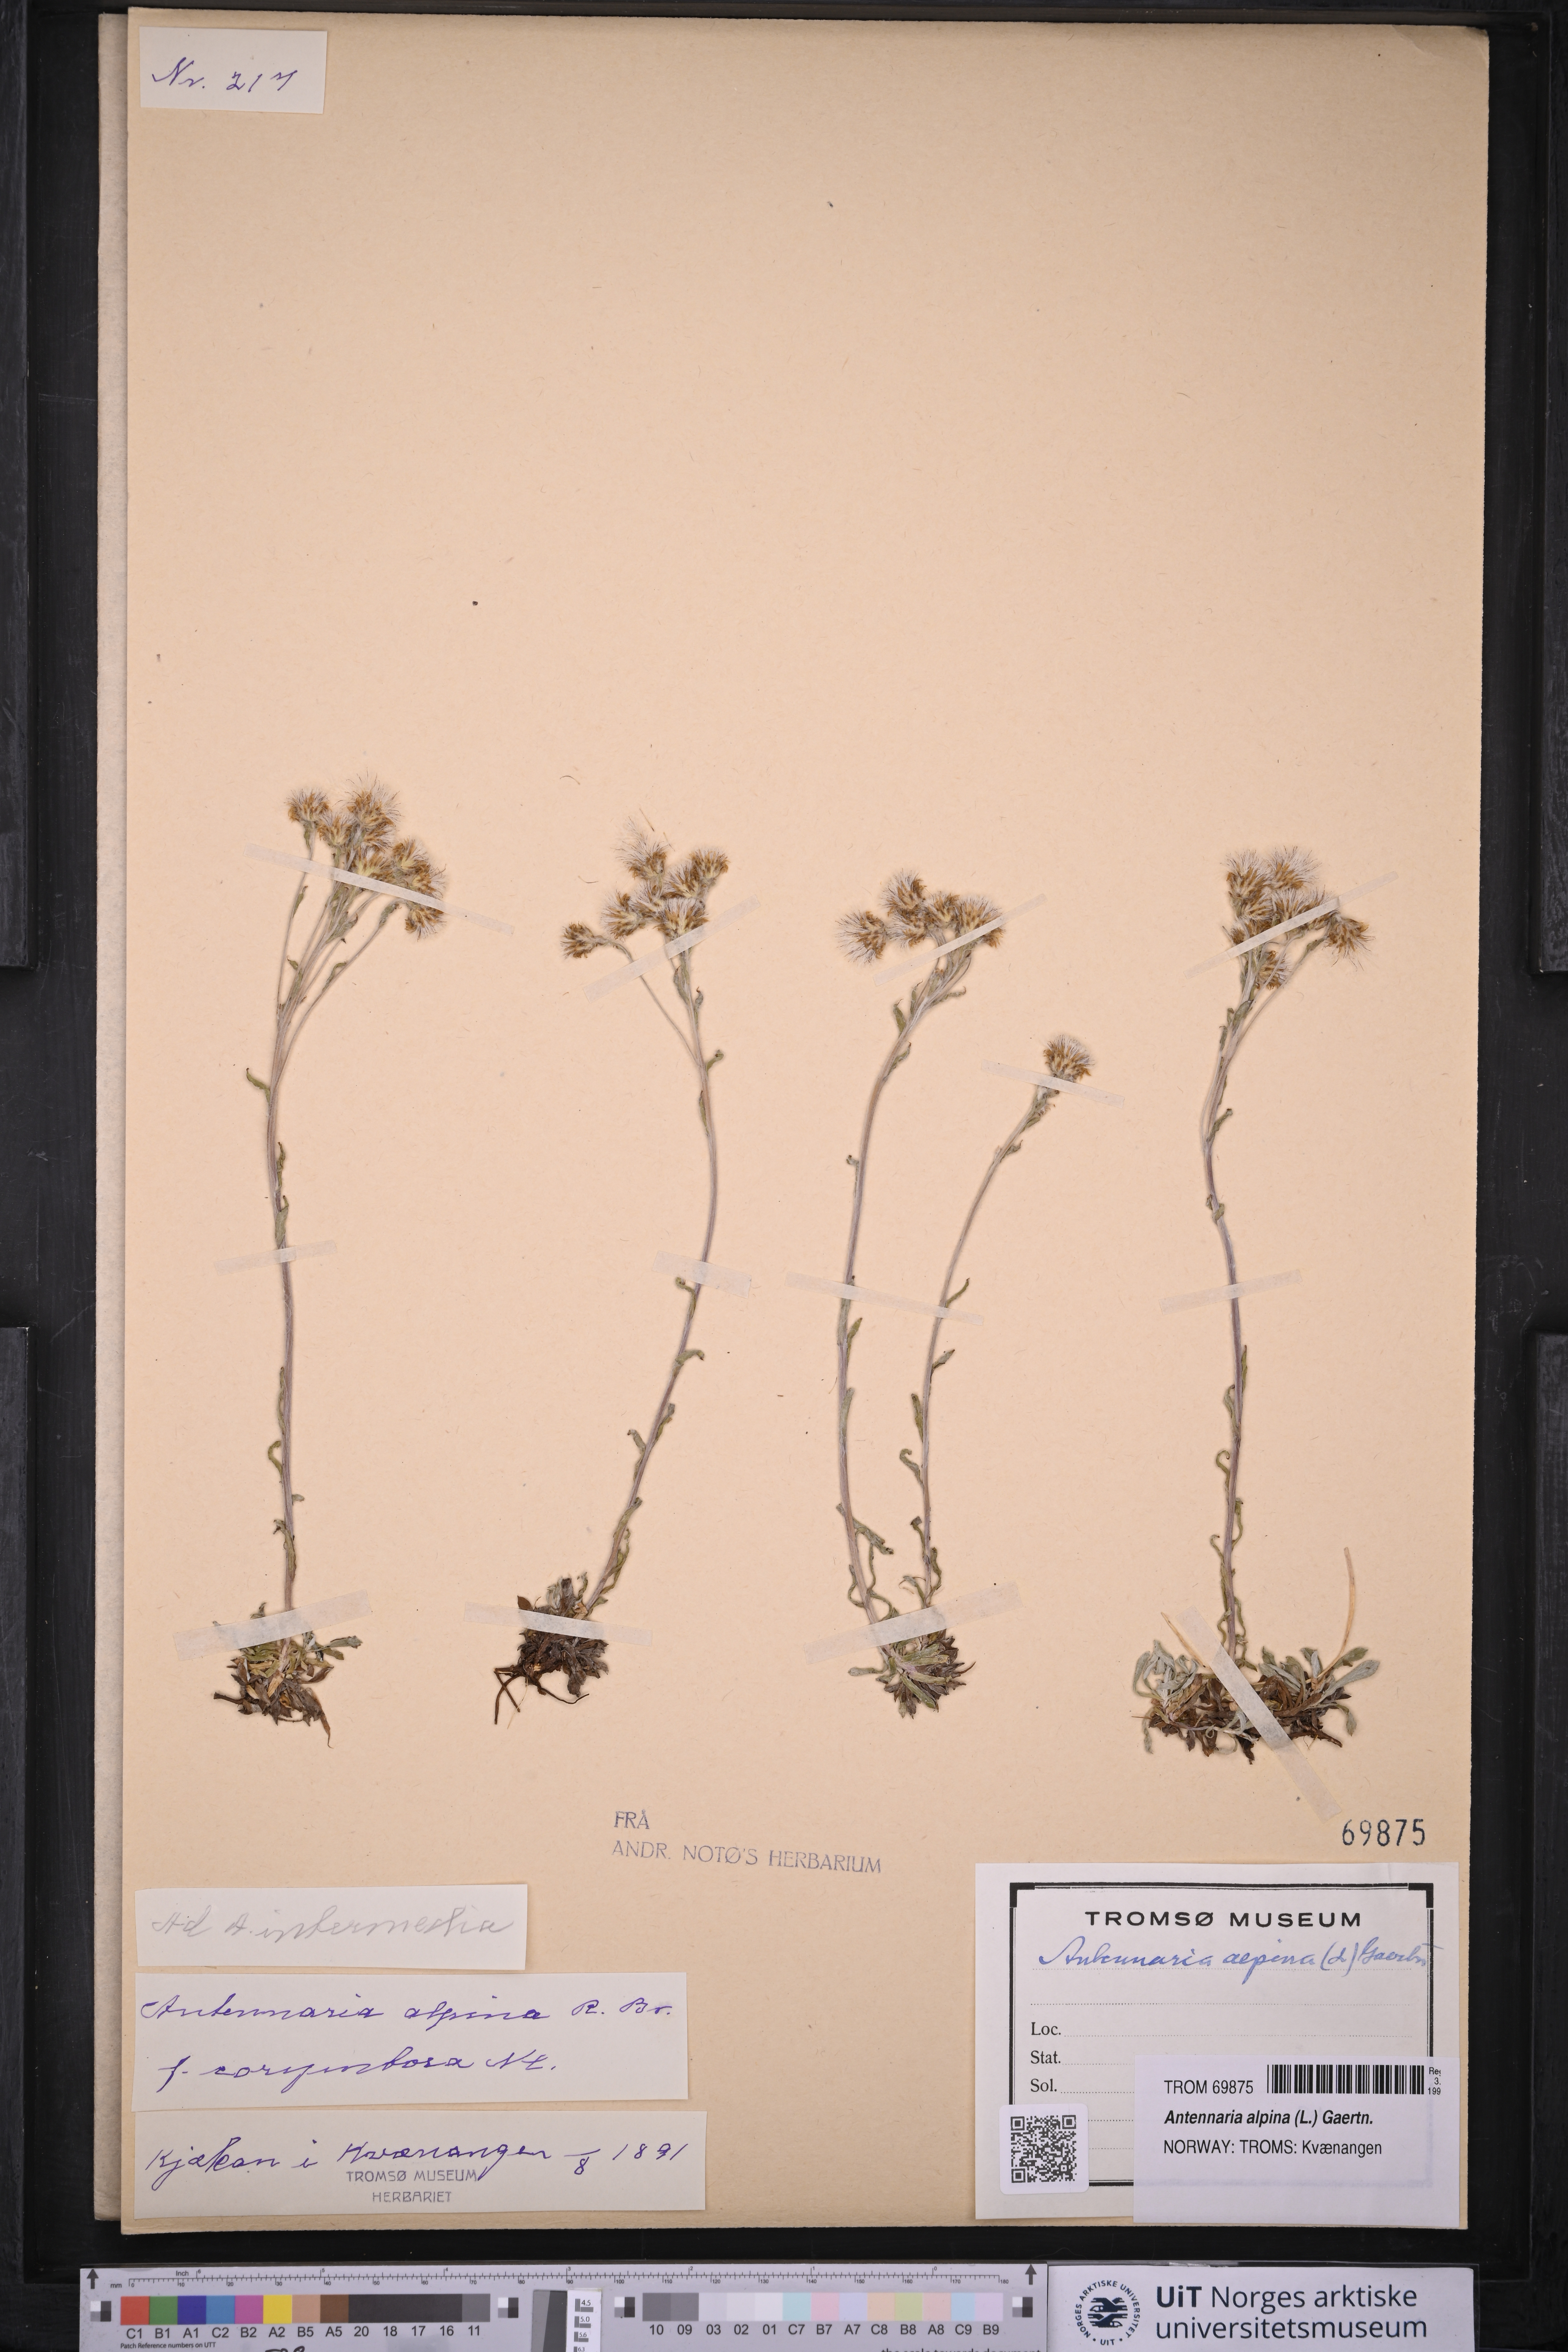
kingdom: Plantae
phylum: Tracheophyta
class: Magnoliopsida
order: Asterales
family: Asteraceae
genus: Antennaria
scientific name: Antennaria alpina
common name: Alpine pussytoes
